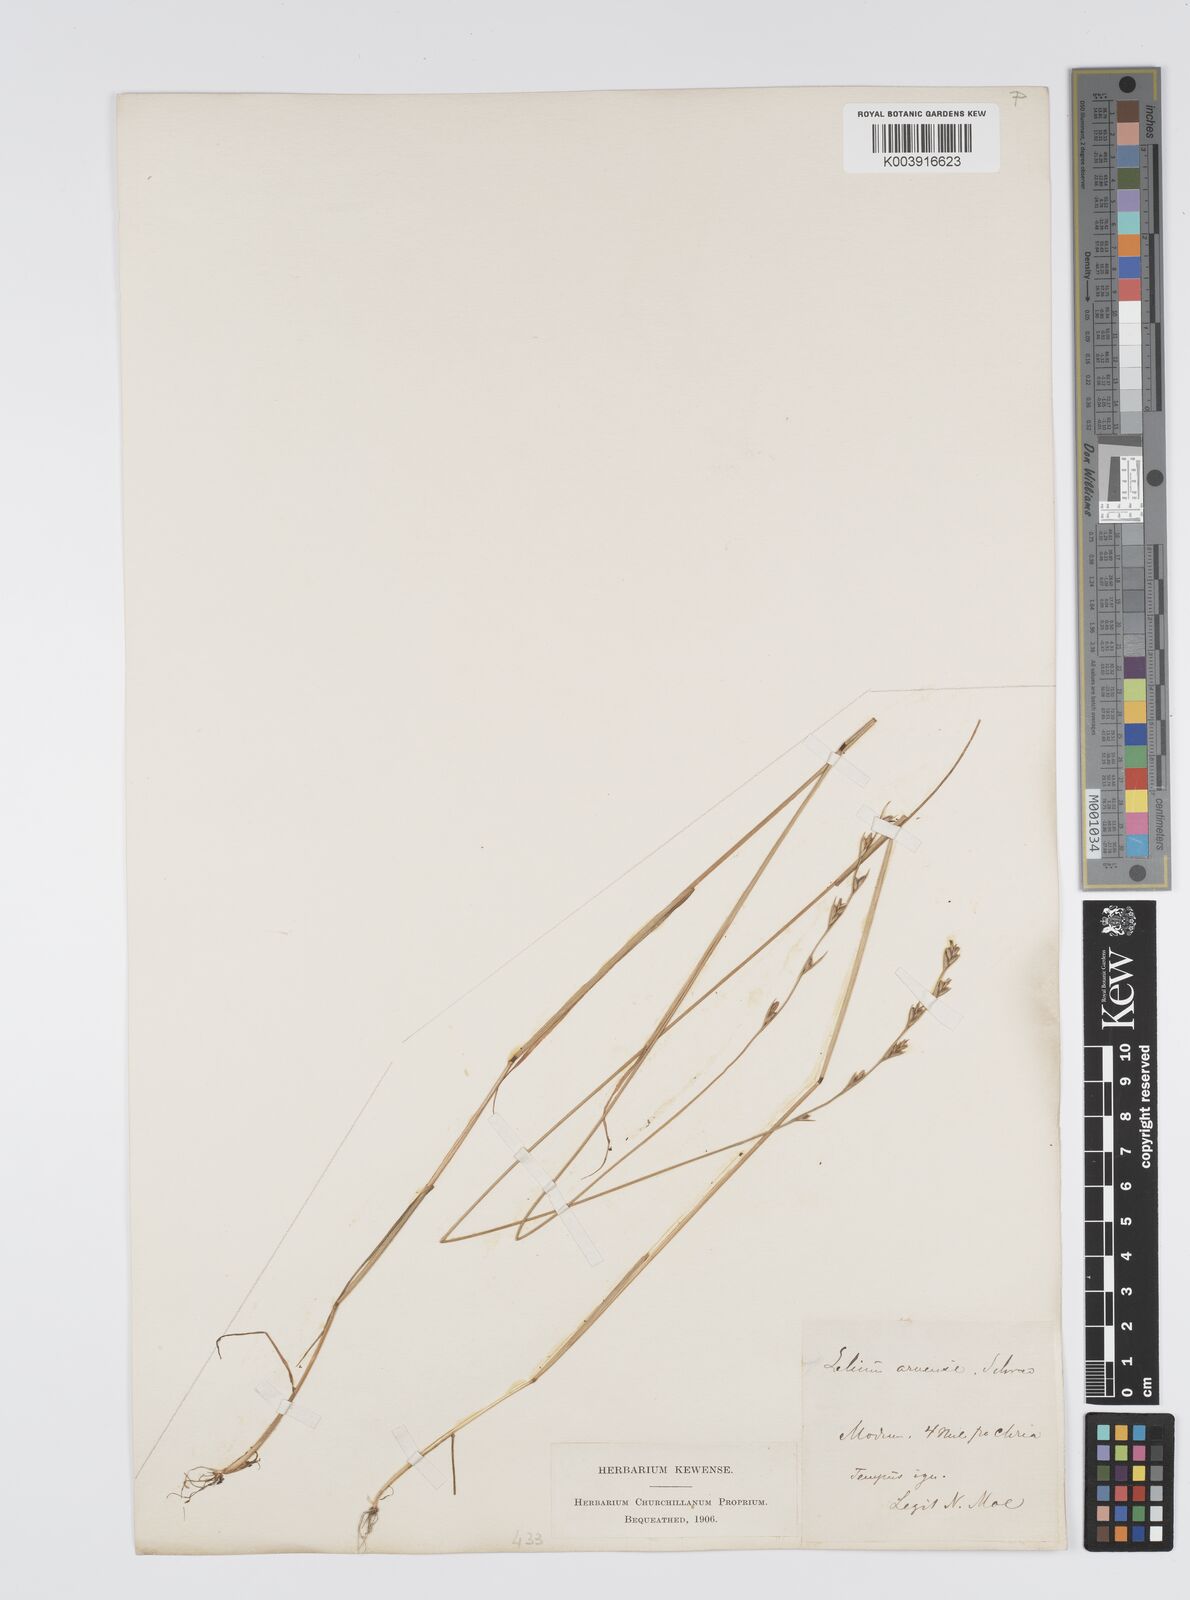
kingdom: Plantae
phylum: Tracheophyta
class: Liliopsida
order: Poales
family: Poaceae
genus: Lolium
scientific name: Lolium remotum
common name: Flaxfield rye-grass
